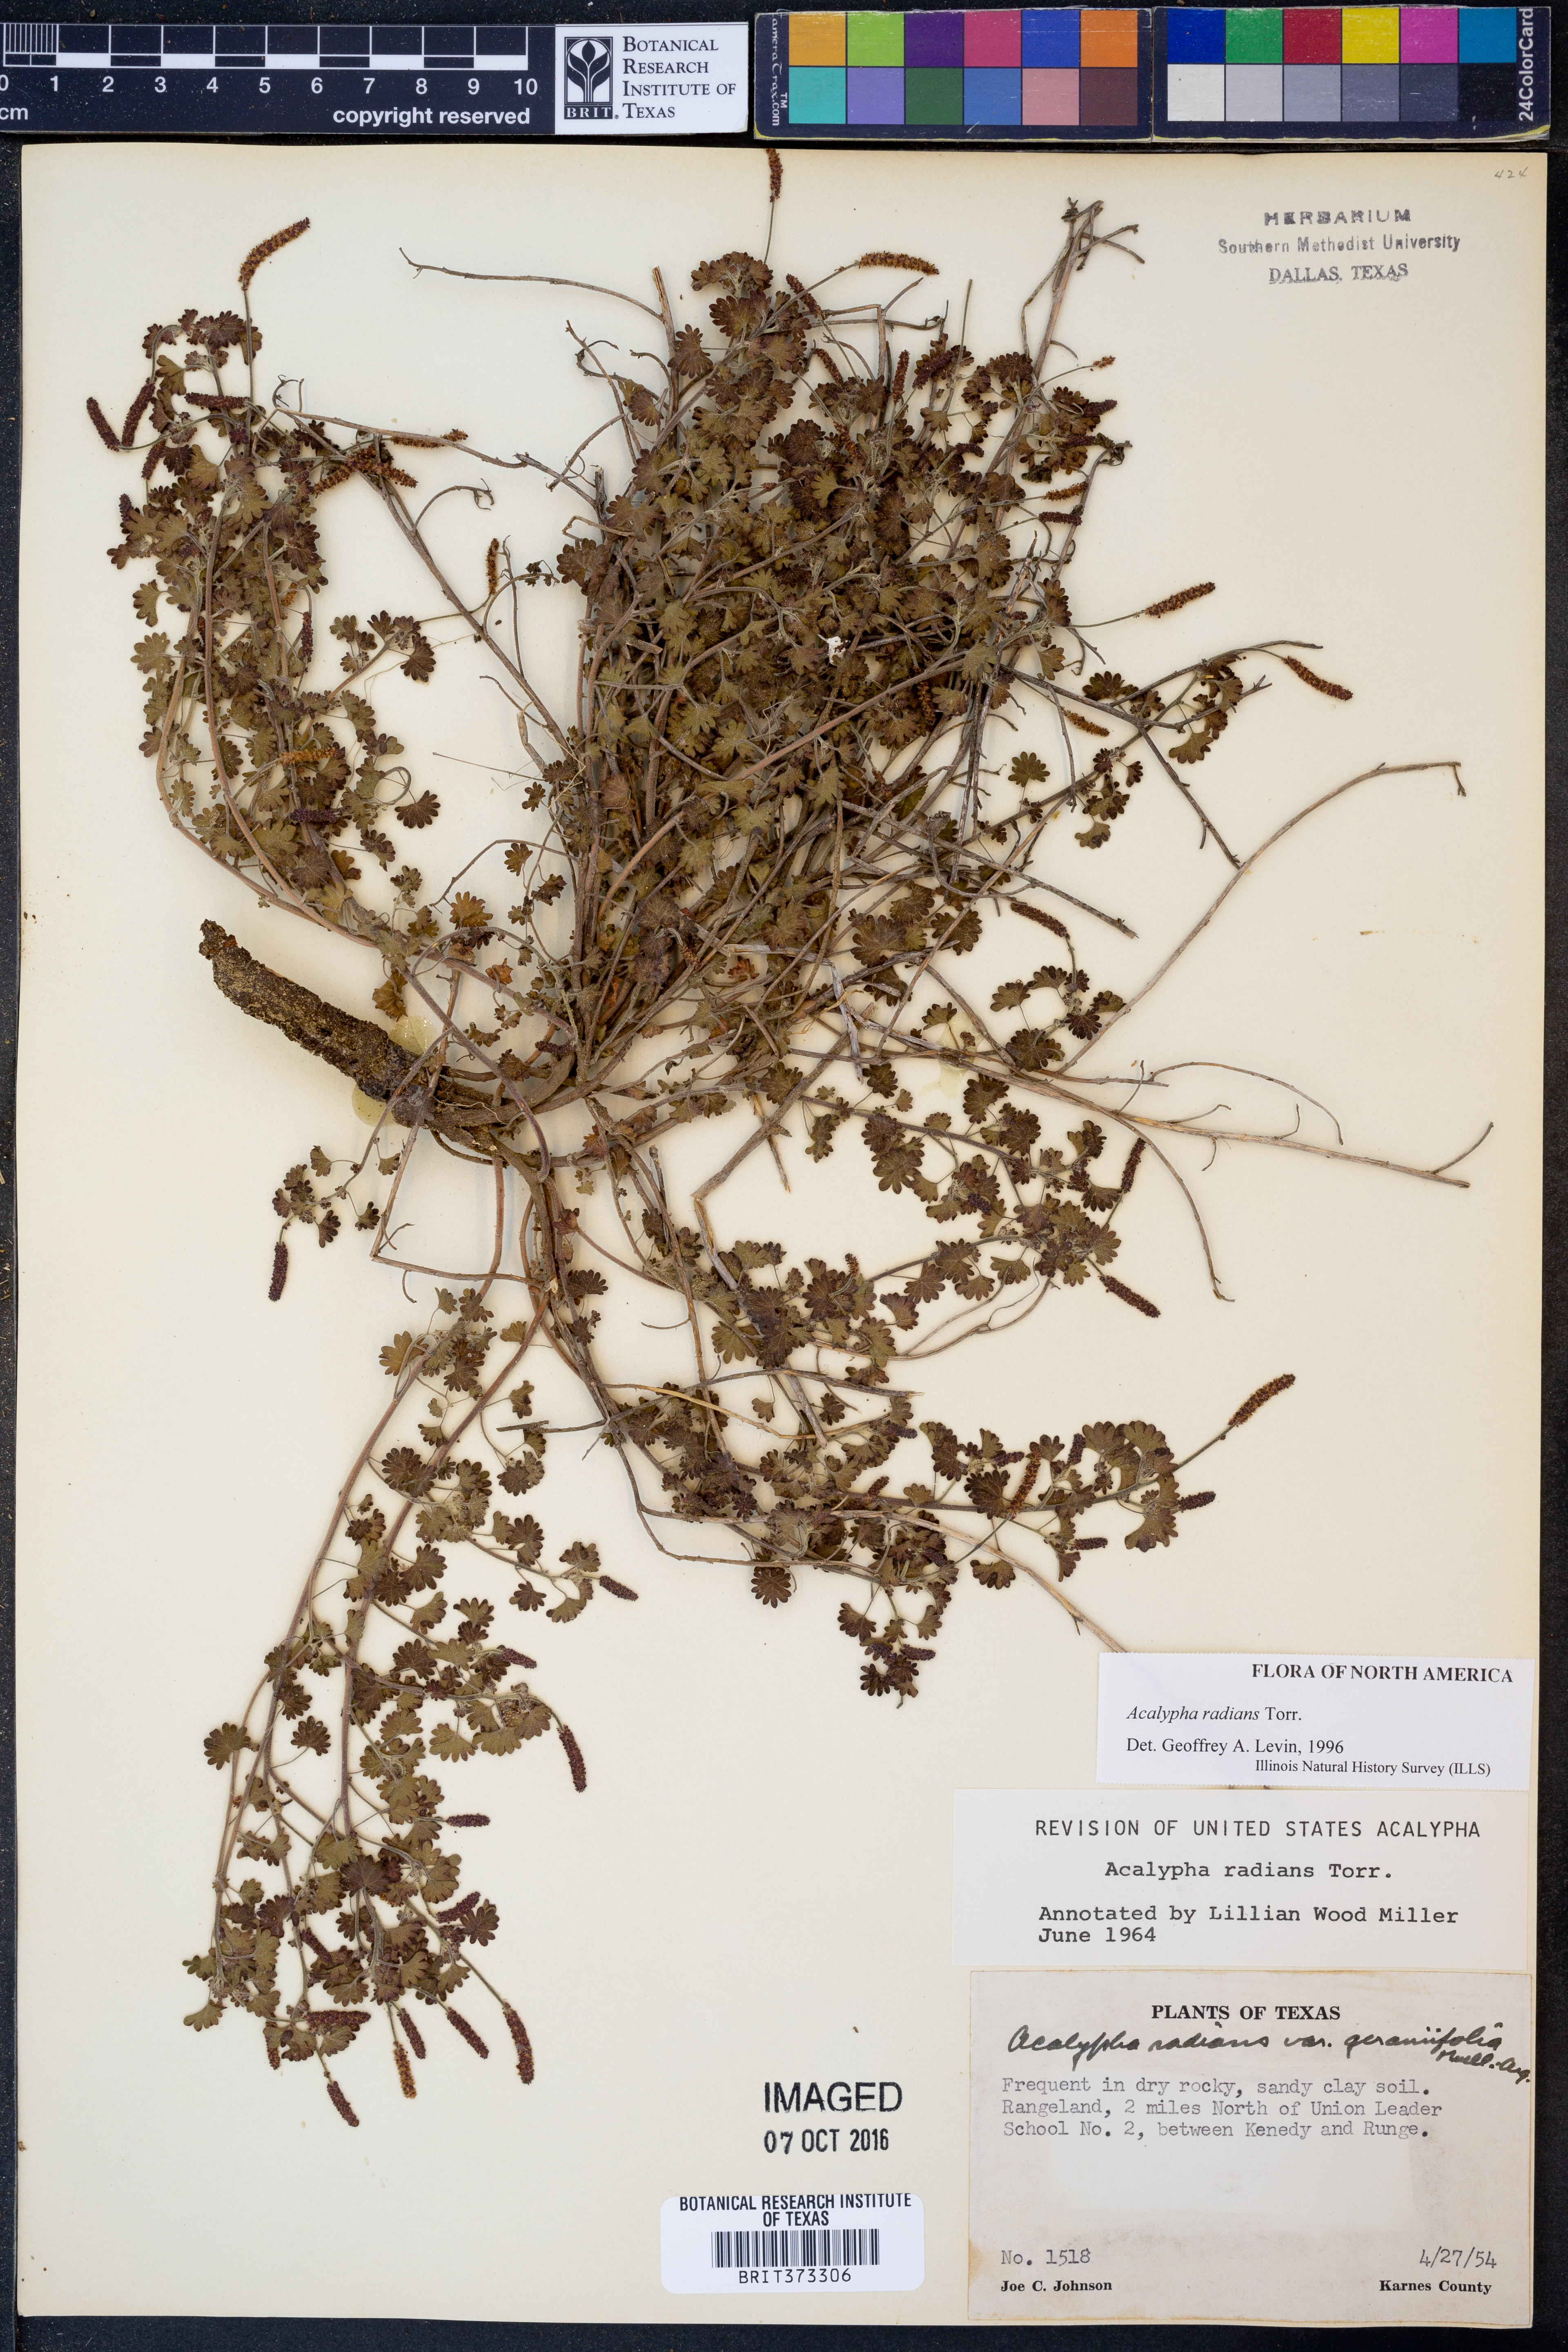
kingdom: Plantae
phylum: Tracheophyta
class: Magnoliopsida
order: Malpighiales
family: Euphorbiaceae
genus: Acalypha
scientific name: Acalypha radians
